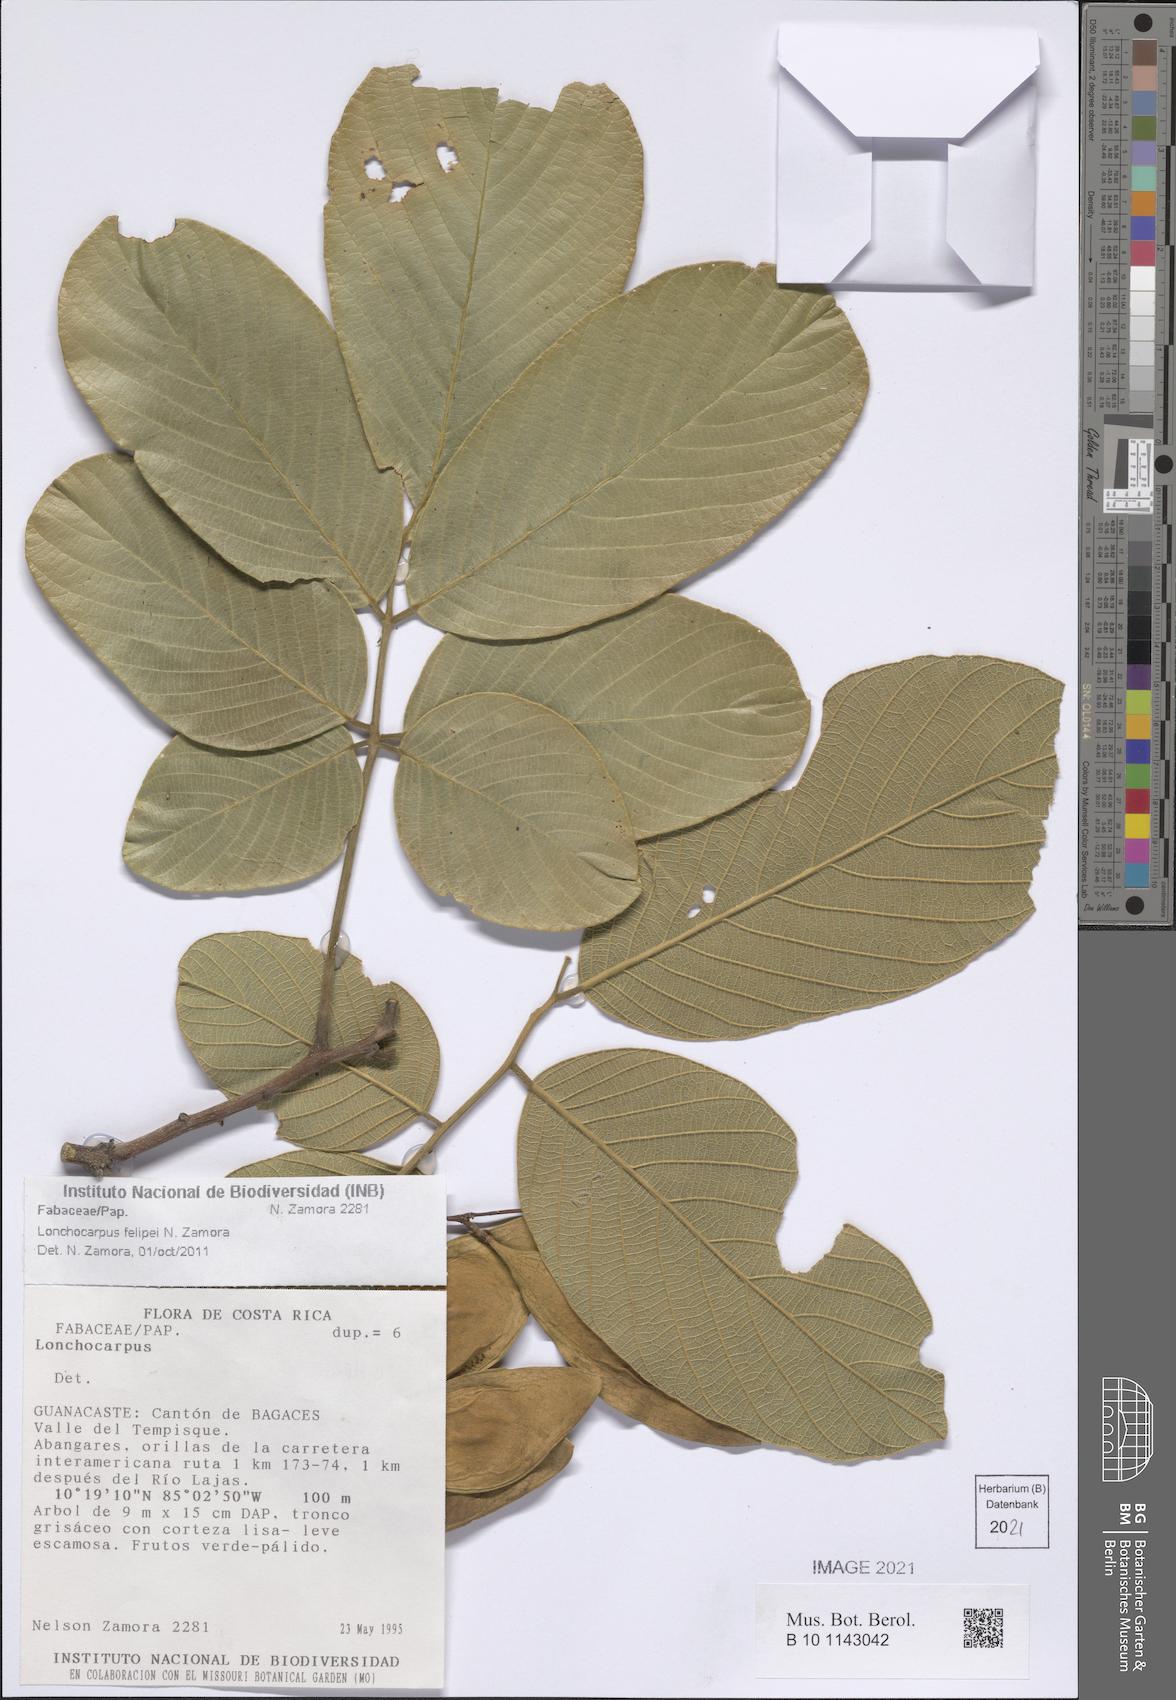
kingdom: Plantae
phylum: Tracheophyta
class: Magnoliopsida
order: Fabales
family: Fabaceae
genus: Lonchocarpus
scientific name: Lonchocarpus felipei
